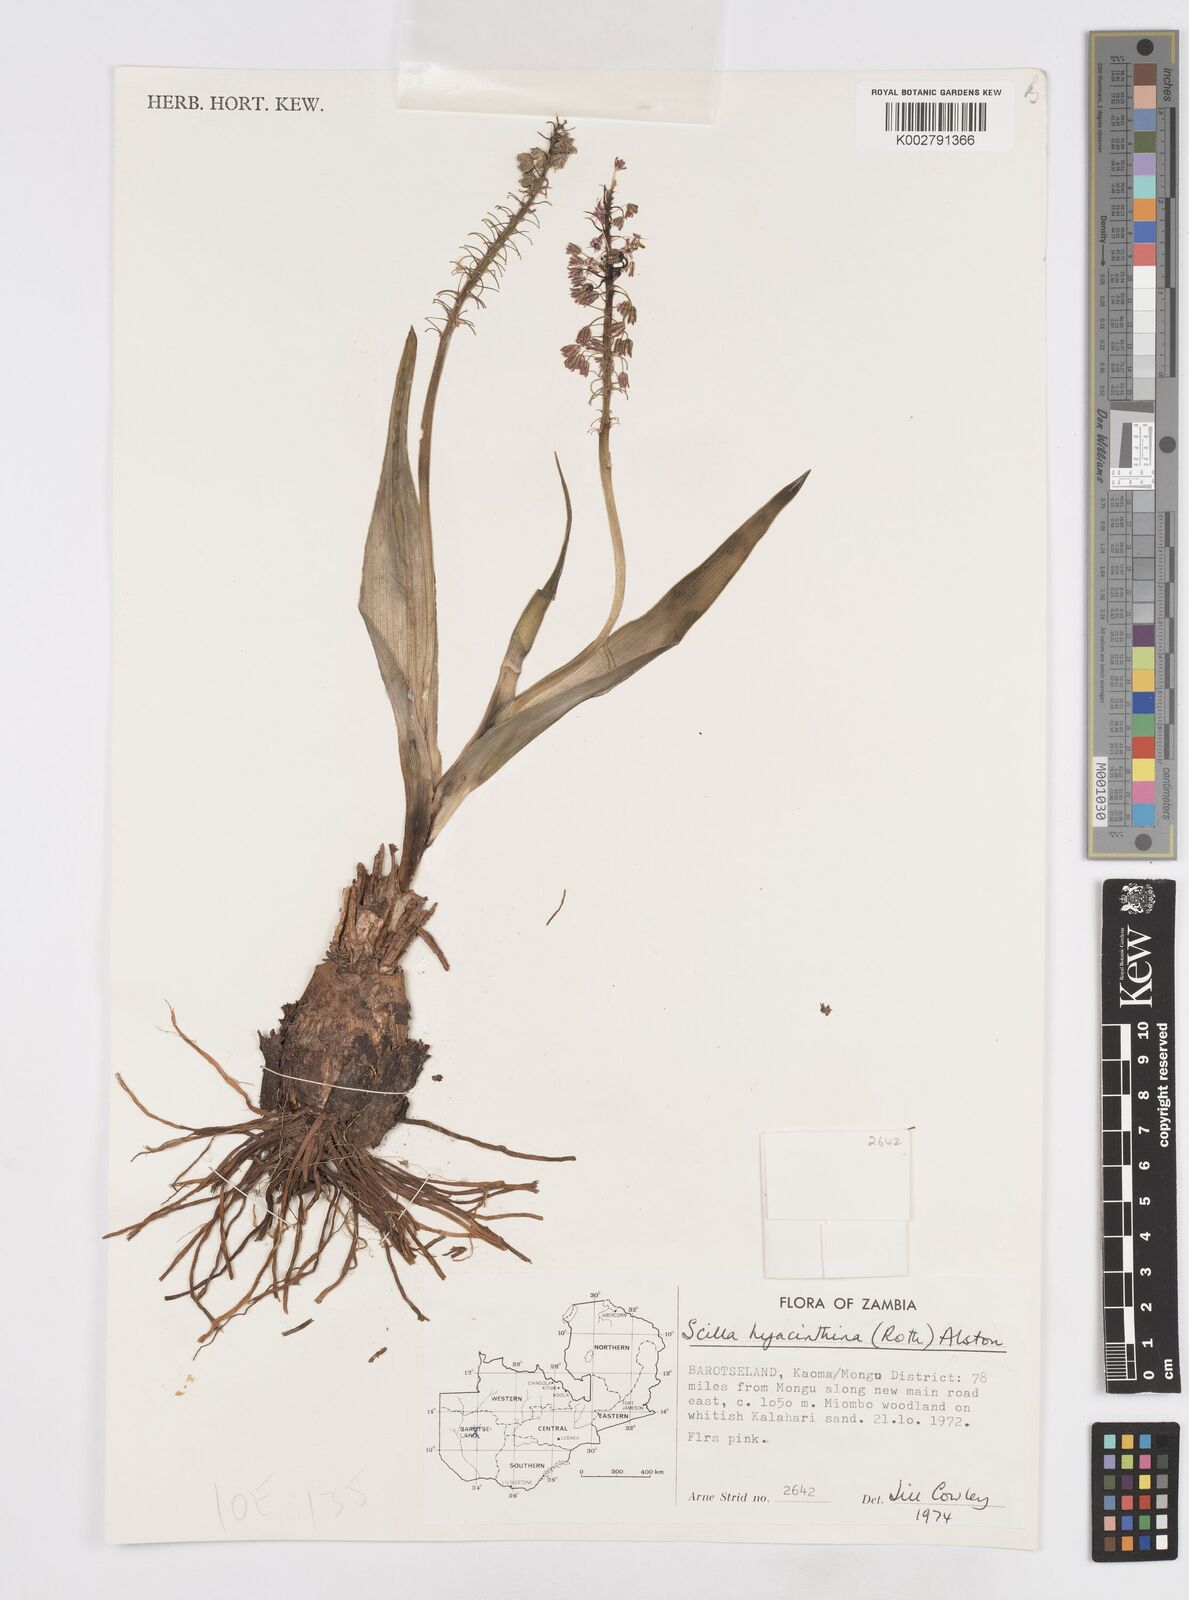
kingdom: Plantae
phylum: Tracheophyta
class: Liliopsida
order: Asparagales
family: Asparagaceae
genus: Ledebouria
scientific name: Ledebouria revoluta
